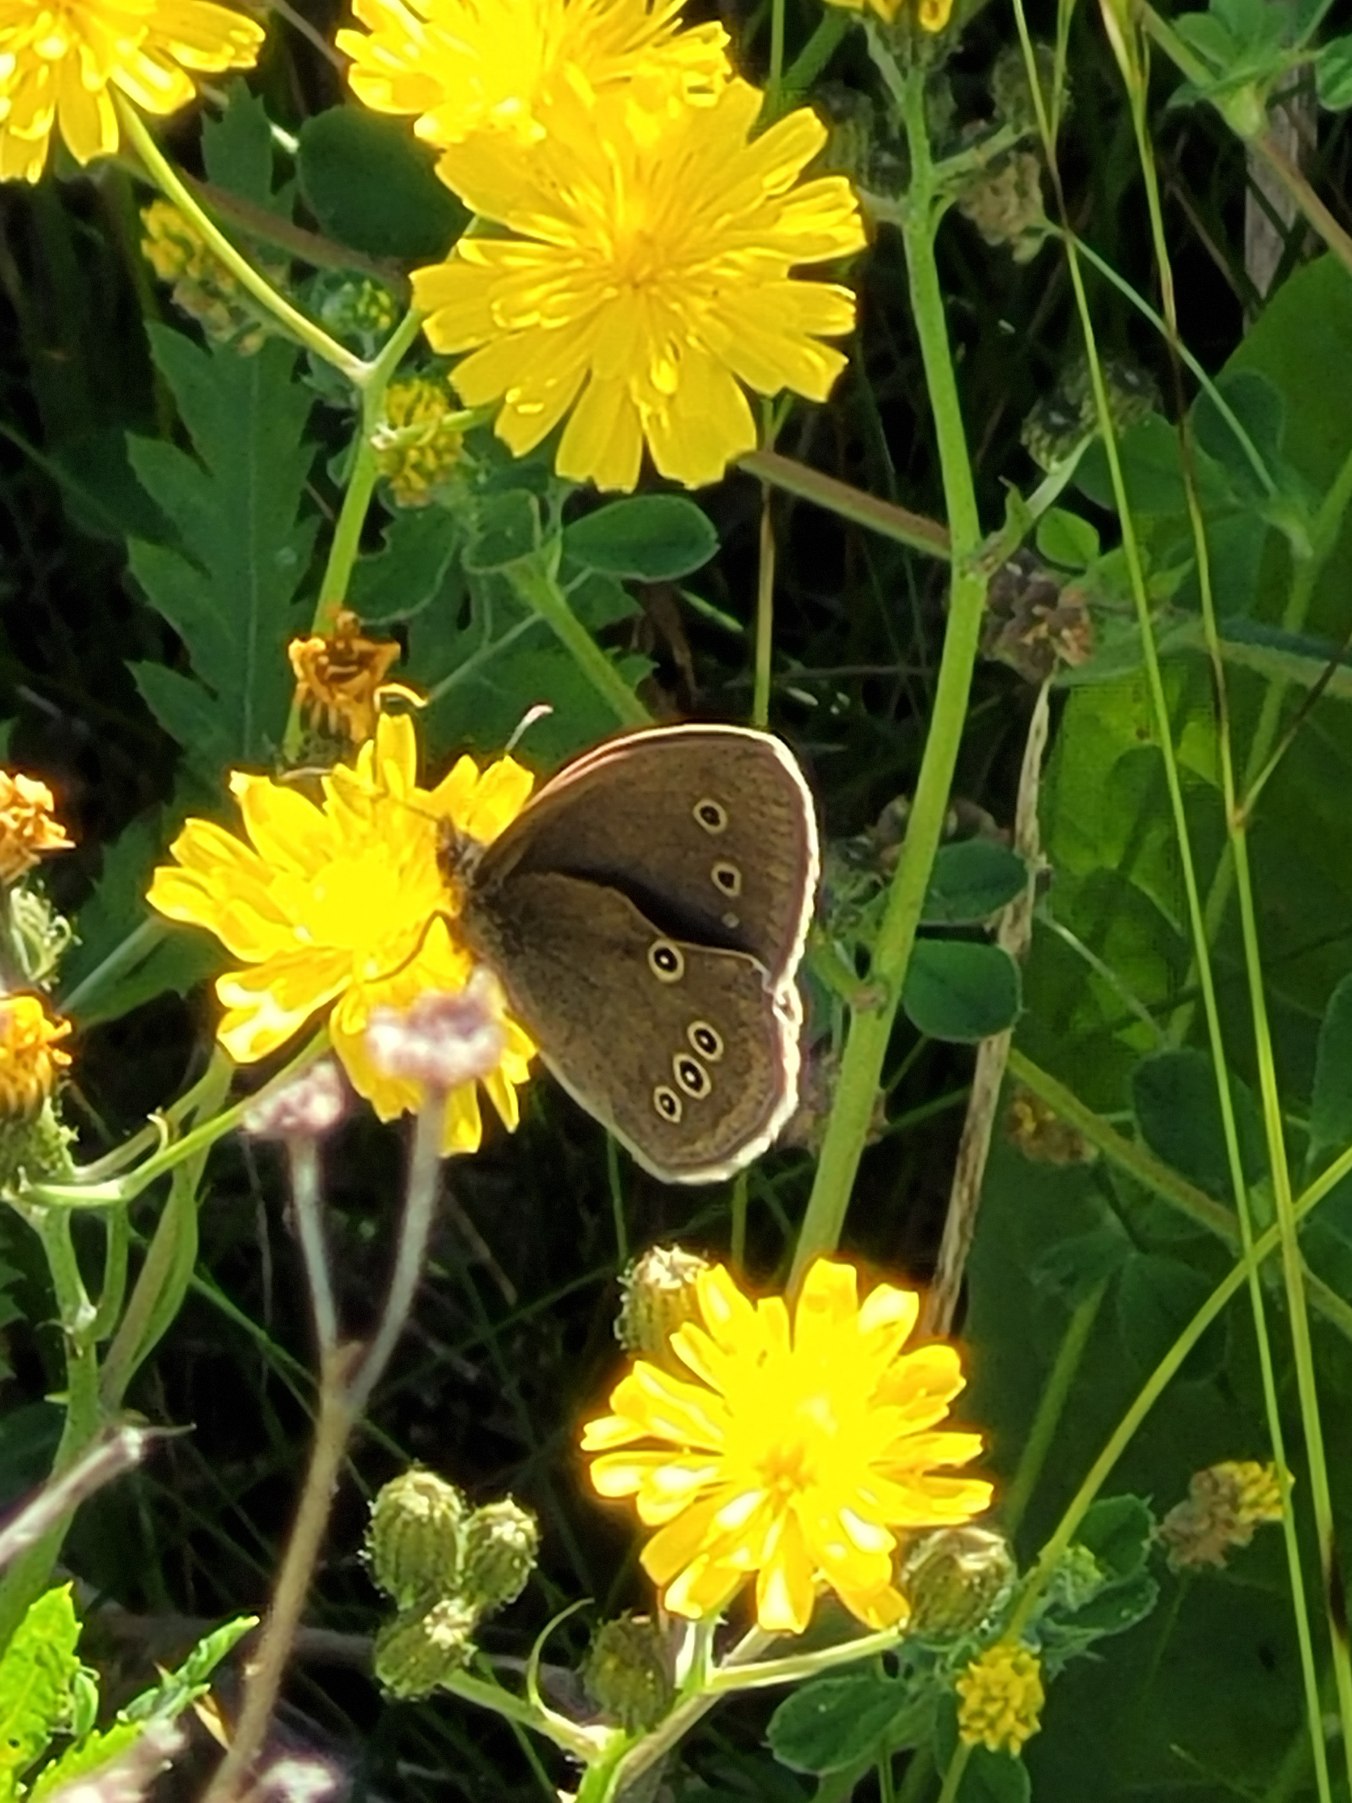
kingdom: Animalia
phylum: Arthropoda
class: Insecta
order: Lepidoptera
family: Nymphalidae
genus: Aphantopus
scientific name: Aphantopus hyperantus
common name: Engrandøje
